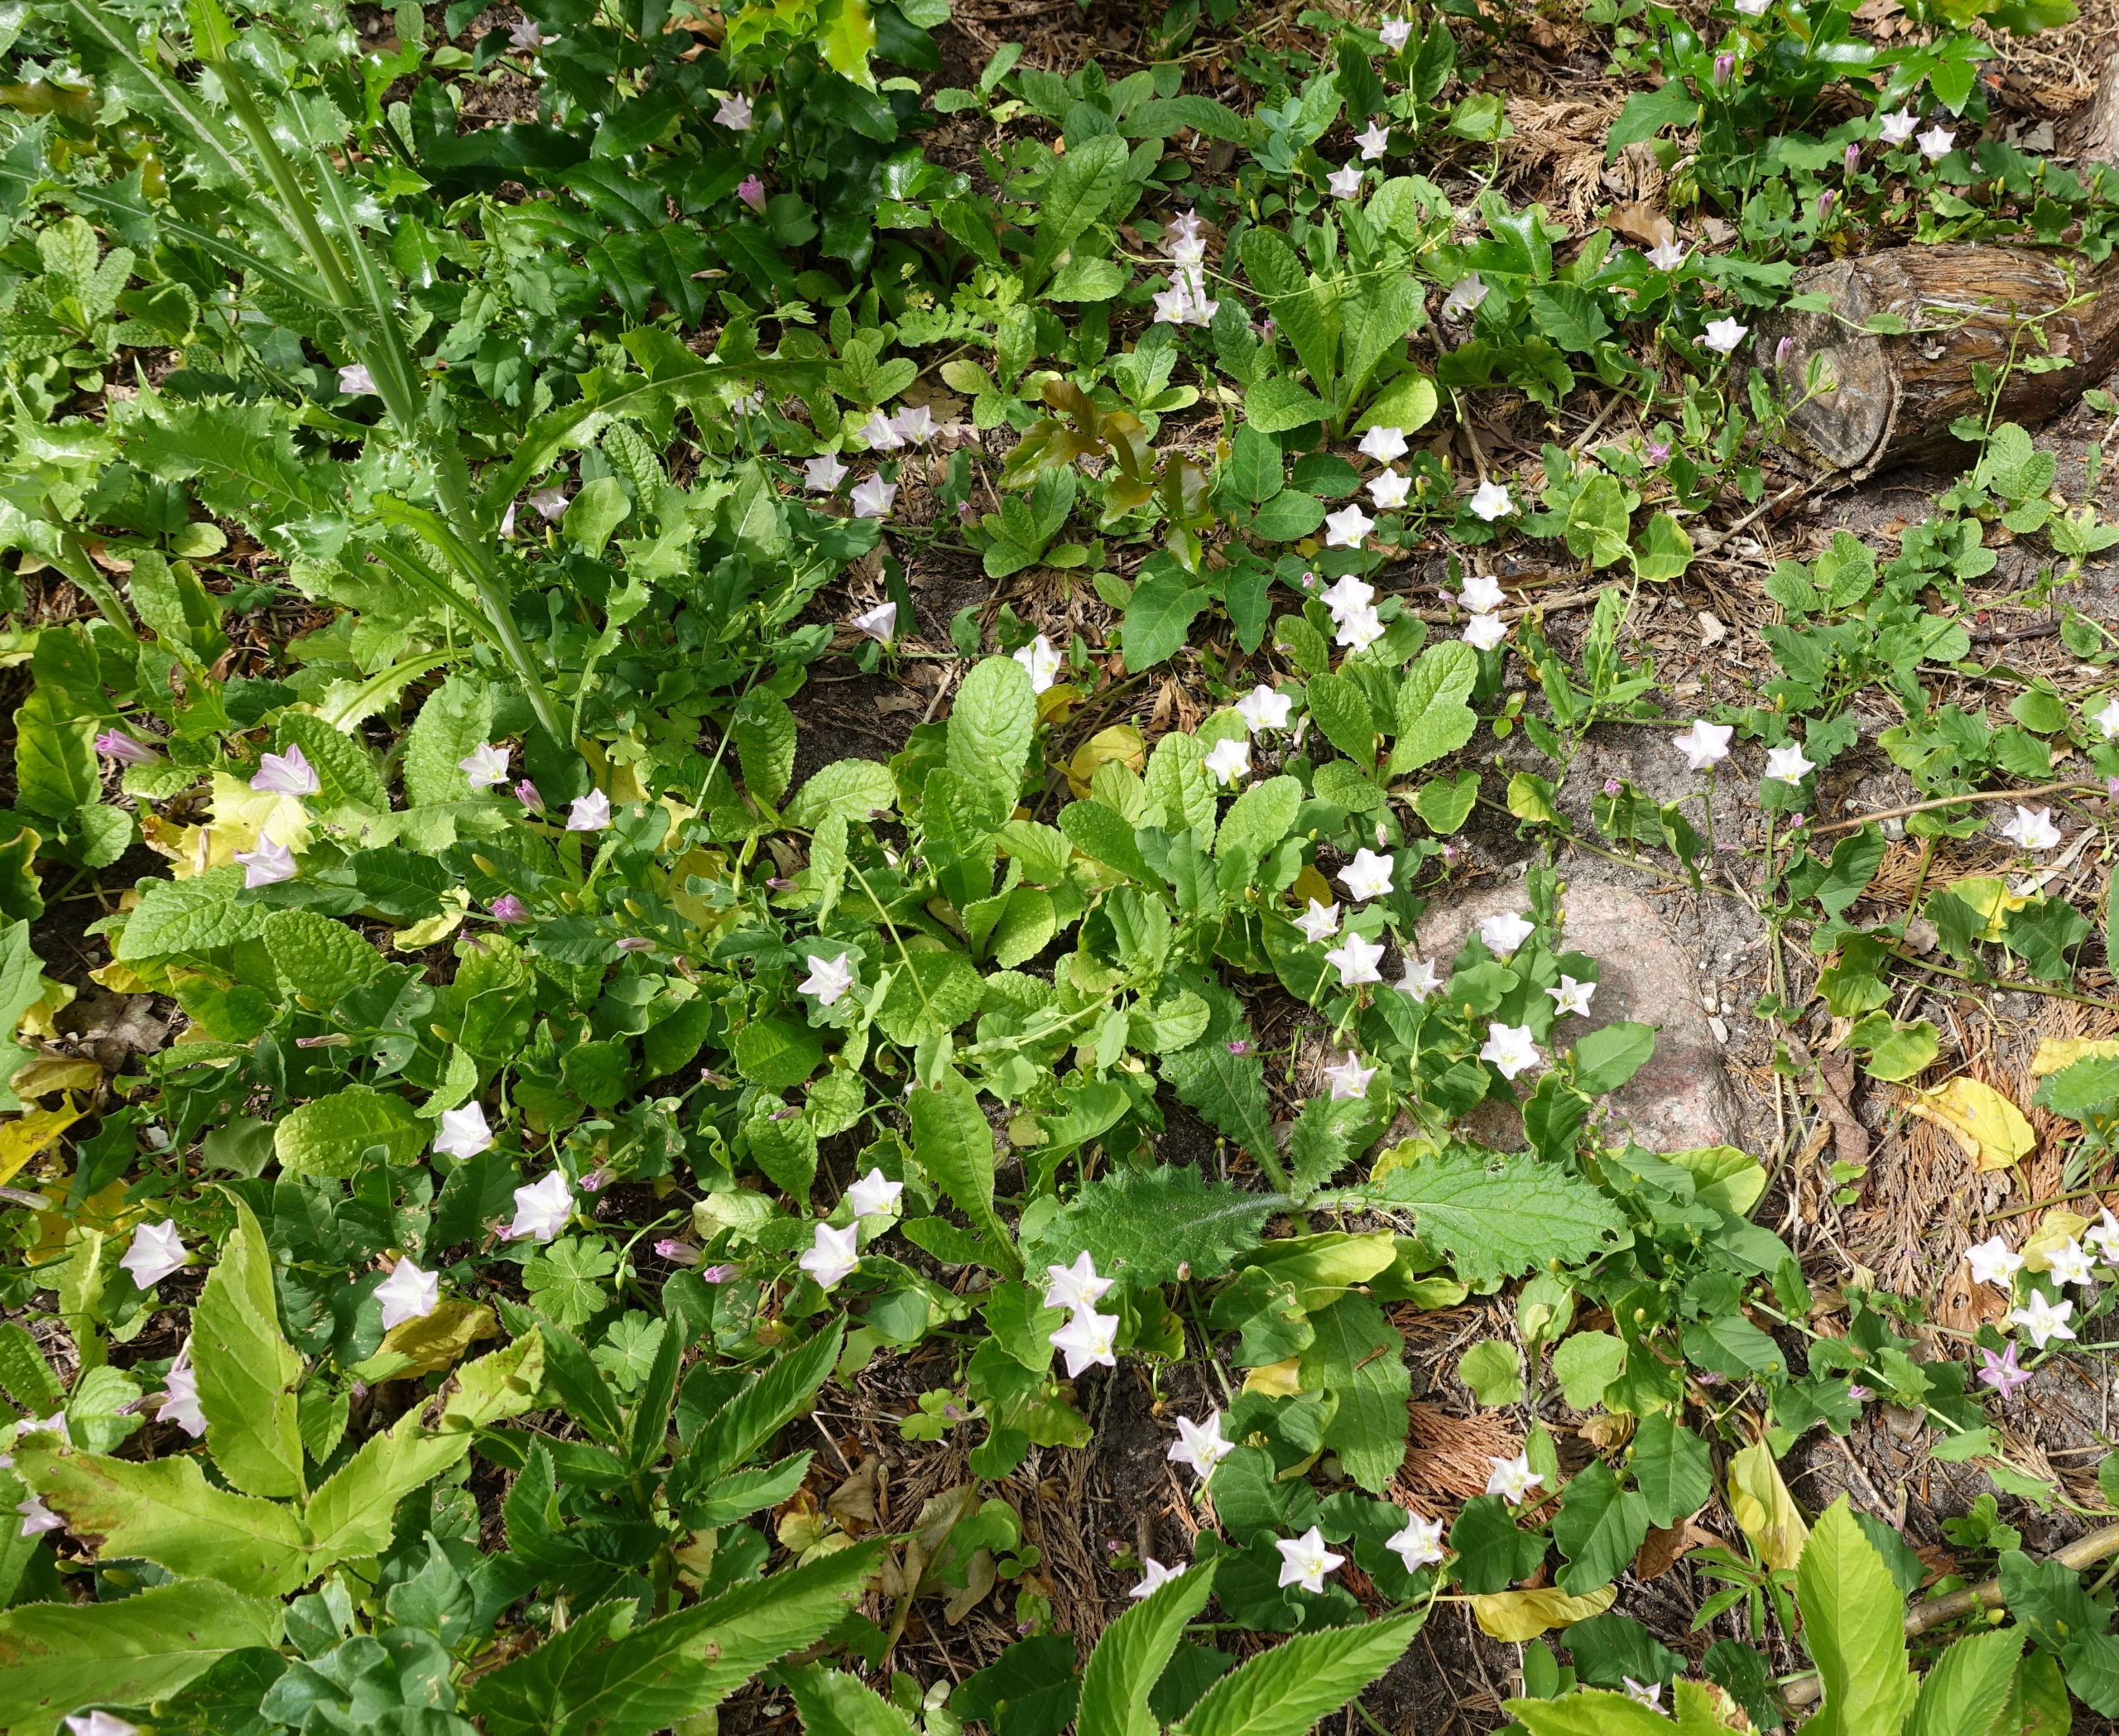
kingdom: Plantae
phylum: Tracheophyta
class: Magnoliopsida
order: Solanales
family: Convolvulaceae
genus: Convolvulus
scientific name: Convolvulus arvensis
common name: Ager-snerle
